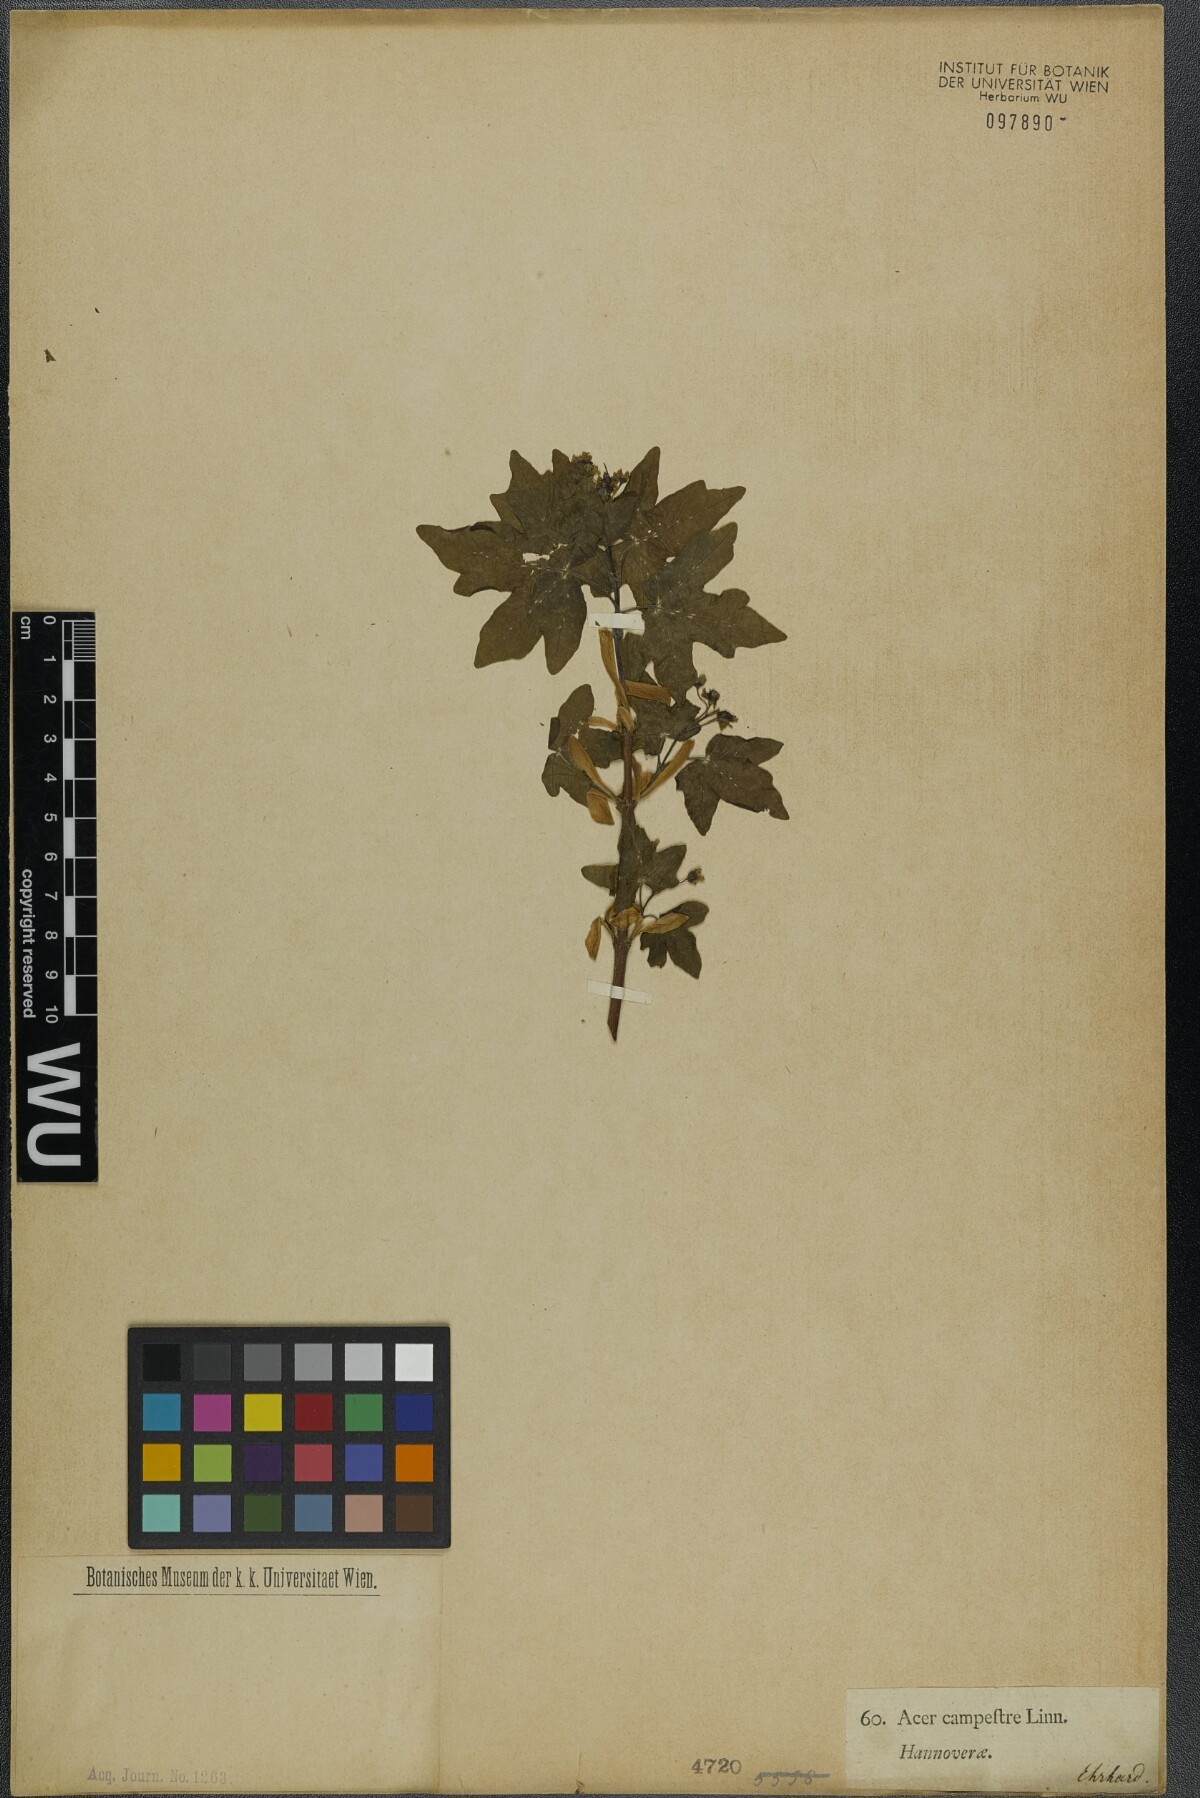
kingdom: Plantae
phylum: Tracheophyta
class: Magnoliopsida
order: Sapindales
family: Sapindaceae
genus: Acer
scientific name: Acer campestre
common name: Field maple
